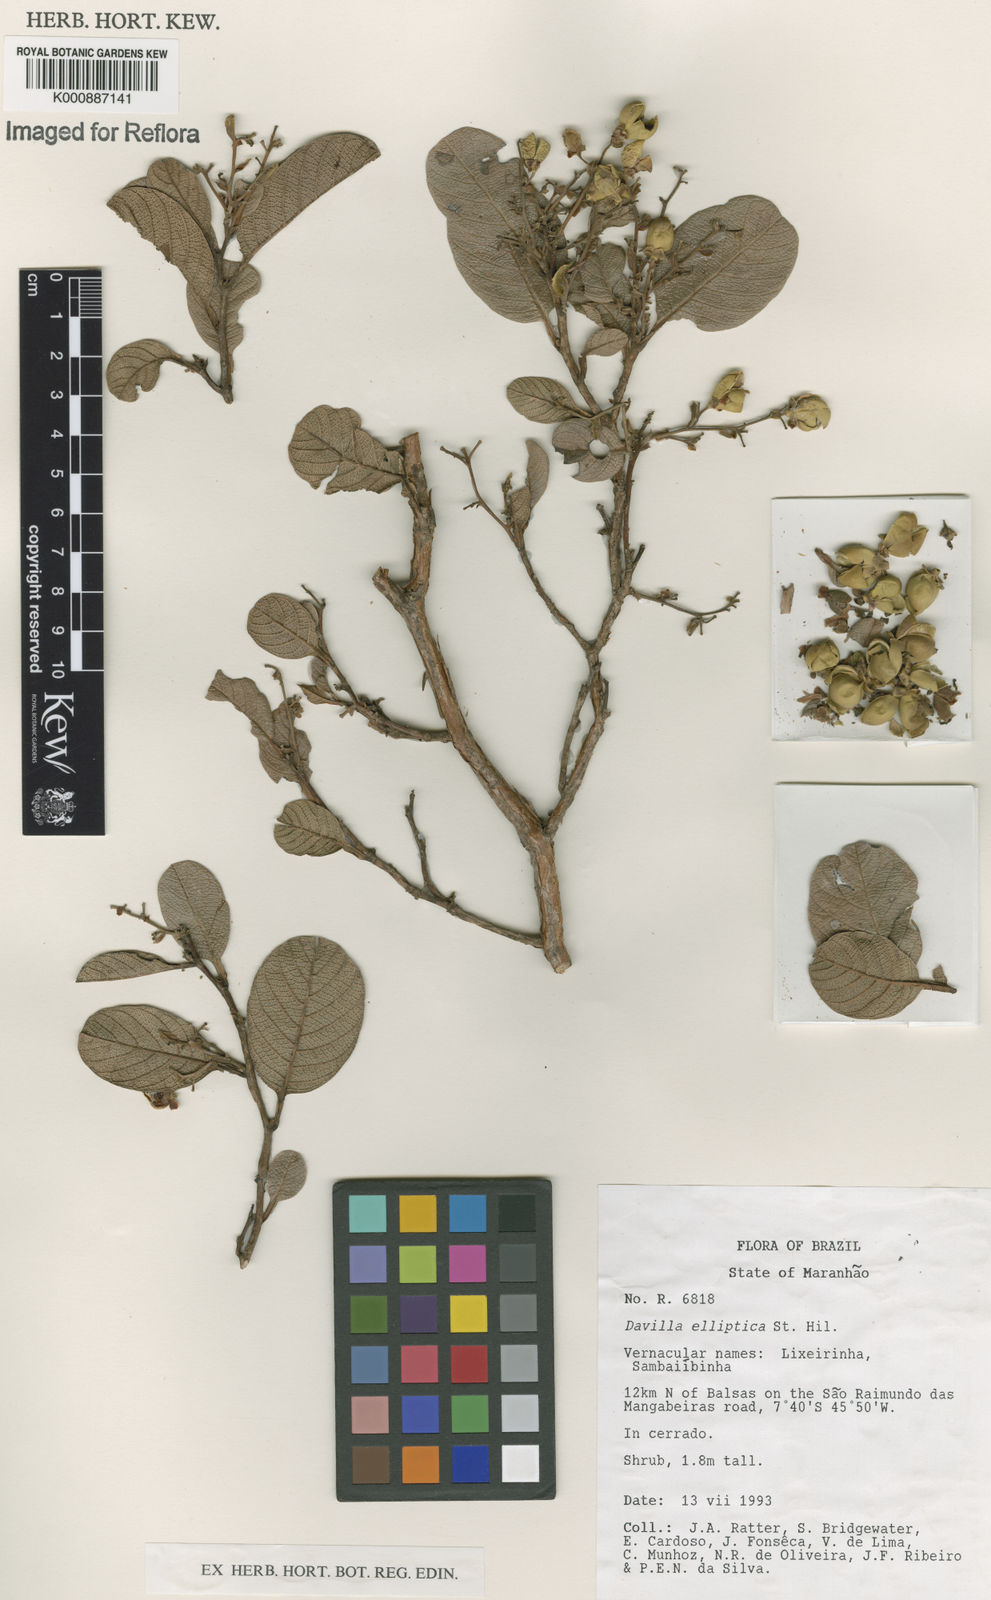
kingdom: Plantae
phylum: Tracheophyta
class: Magnoliopsida
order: Dilleniales
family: Dilleniaceae
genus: Davilla
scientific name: Davilla elliptica
